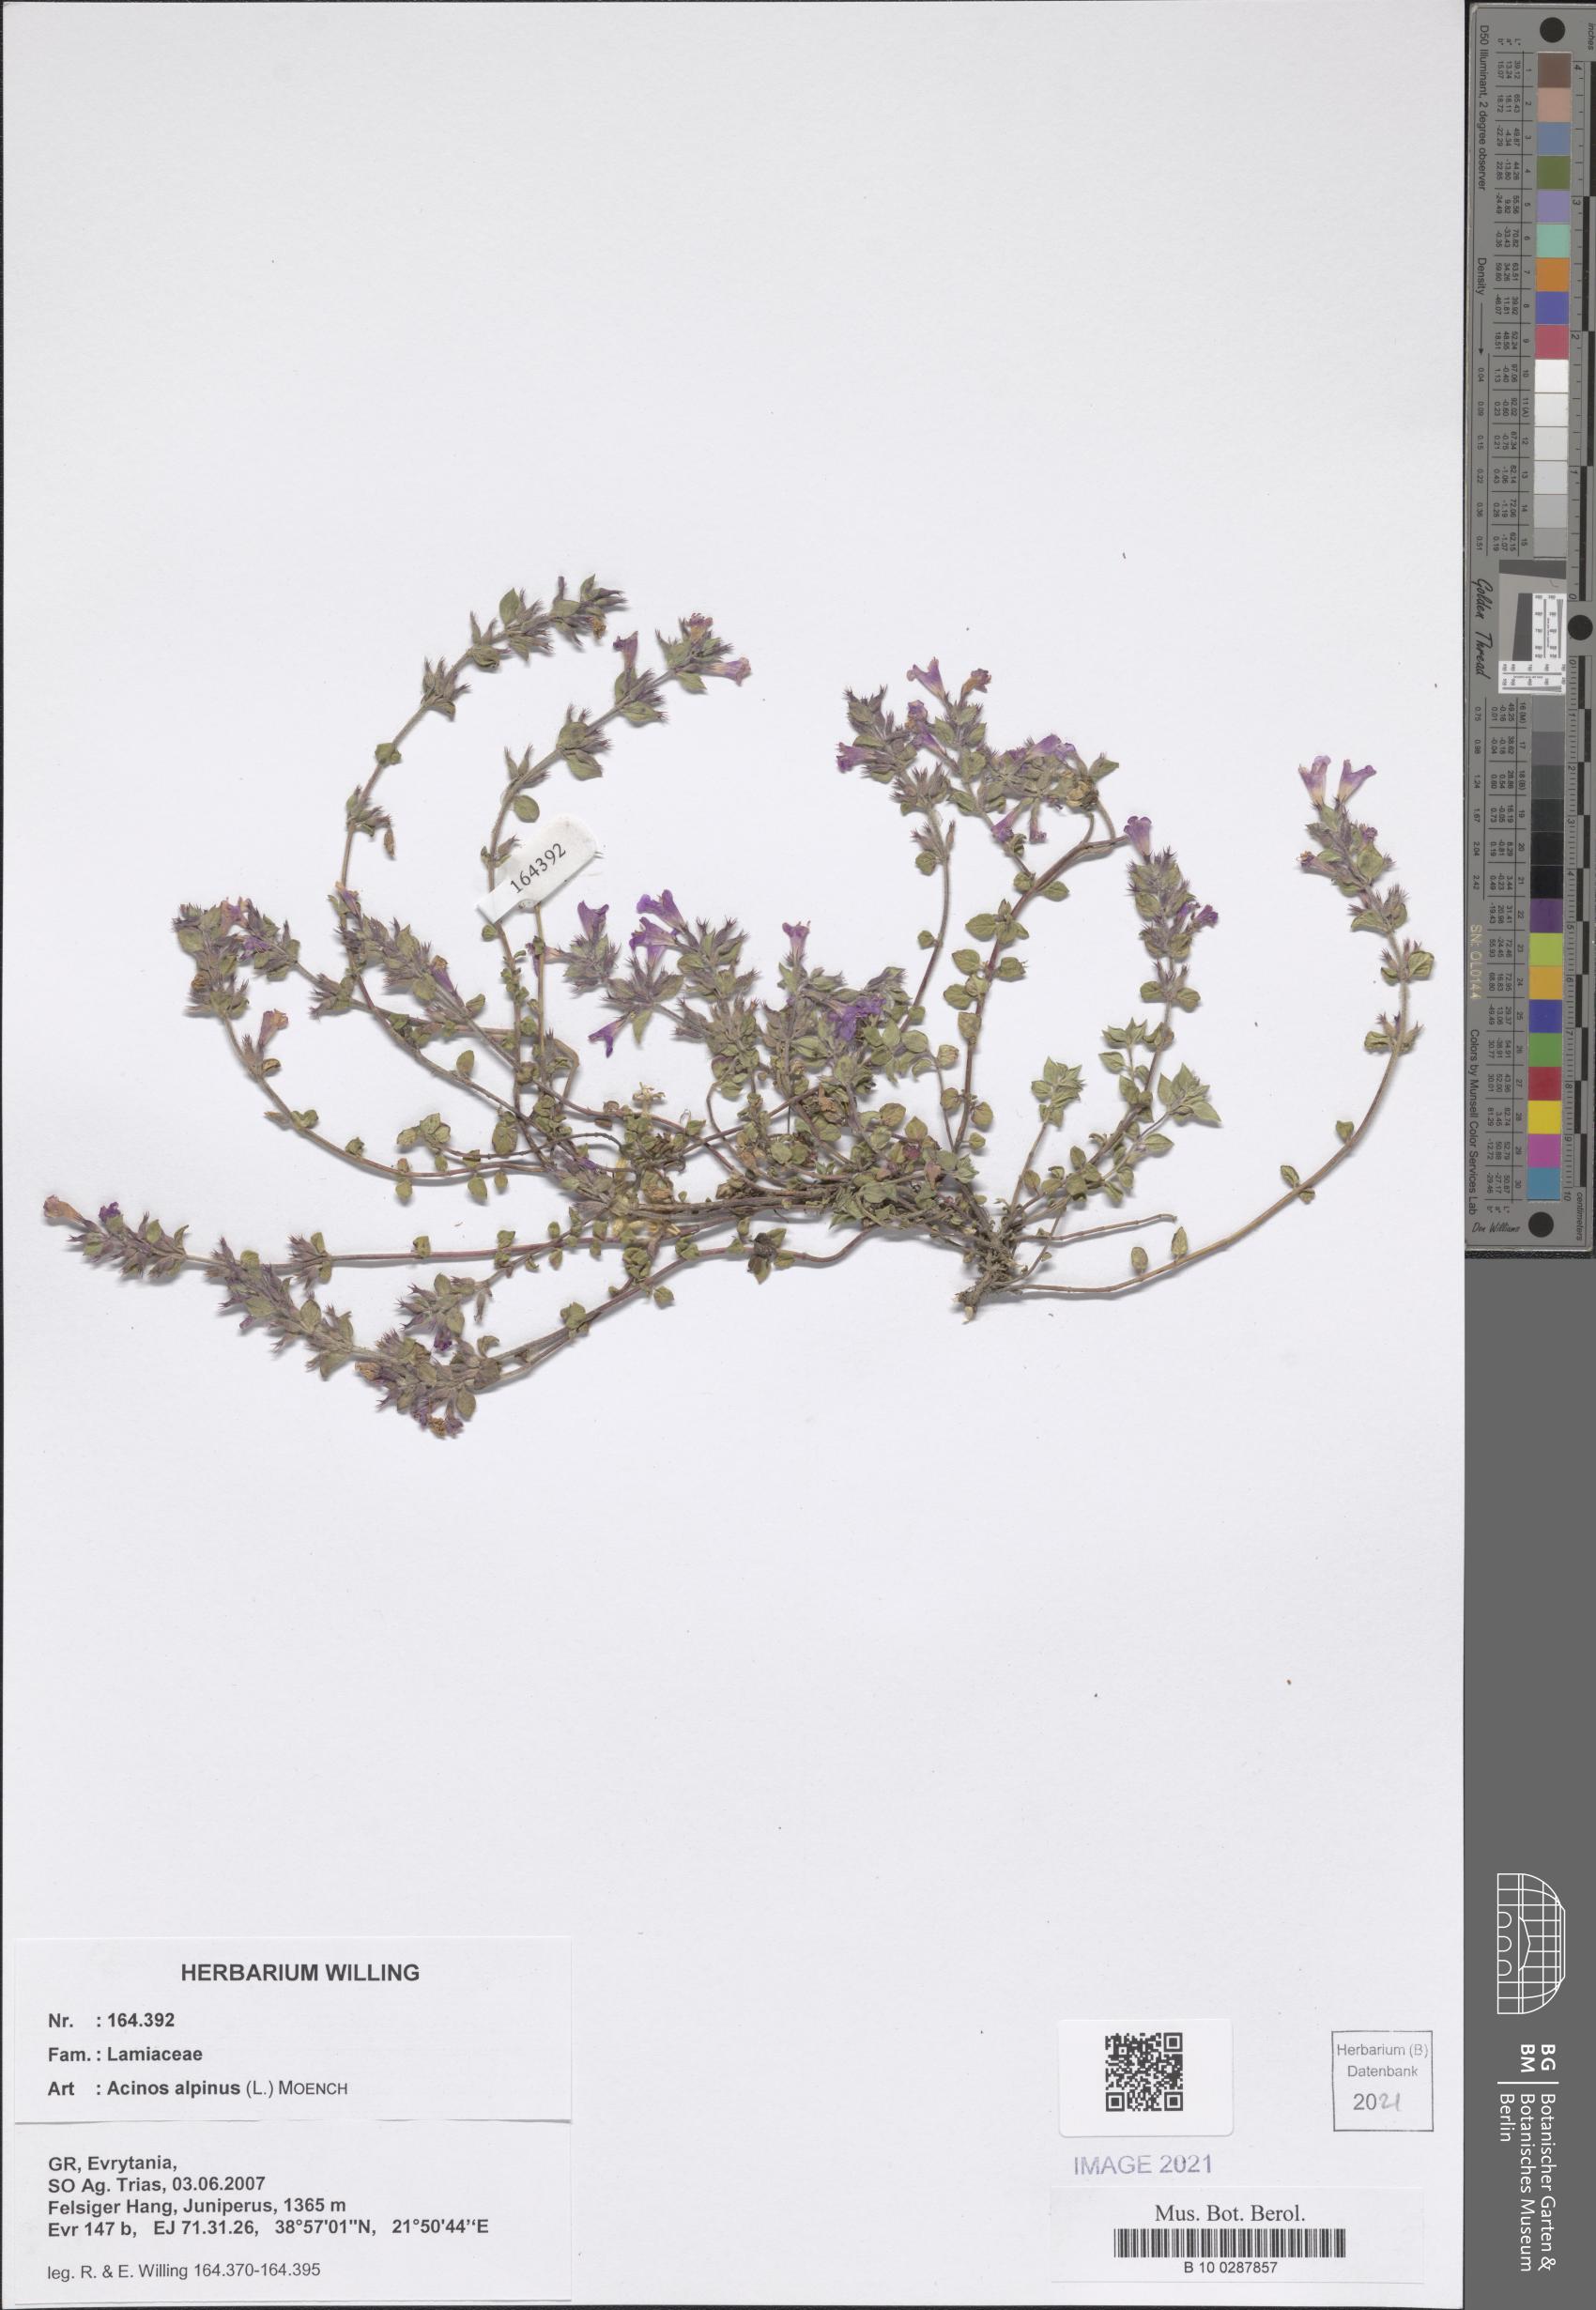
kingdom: Plantae
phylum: Tracheophyta
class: Magnoliopsida
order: Lamiales
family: Lamiaceae
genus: Clinopodium
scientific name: Clinopodium alpinum
